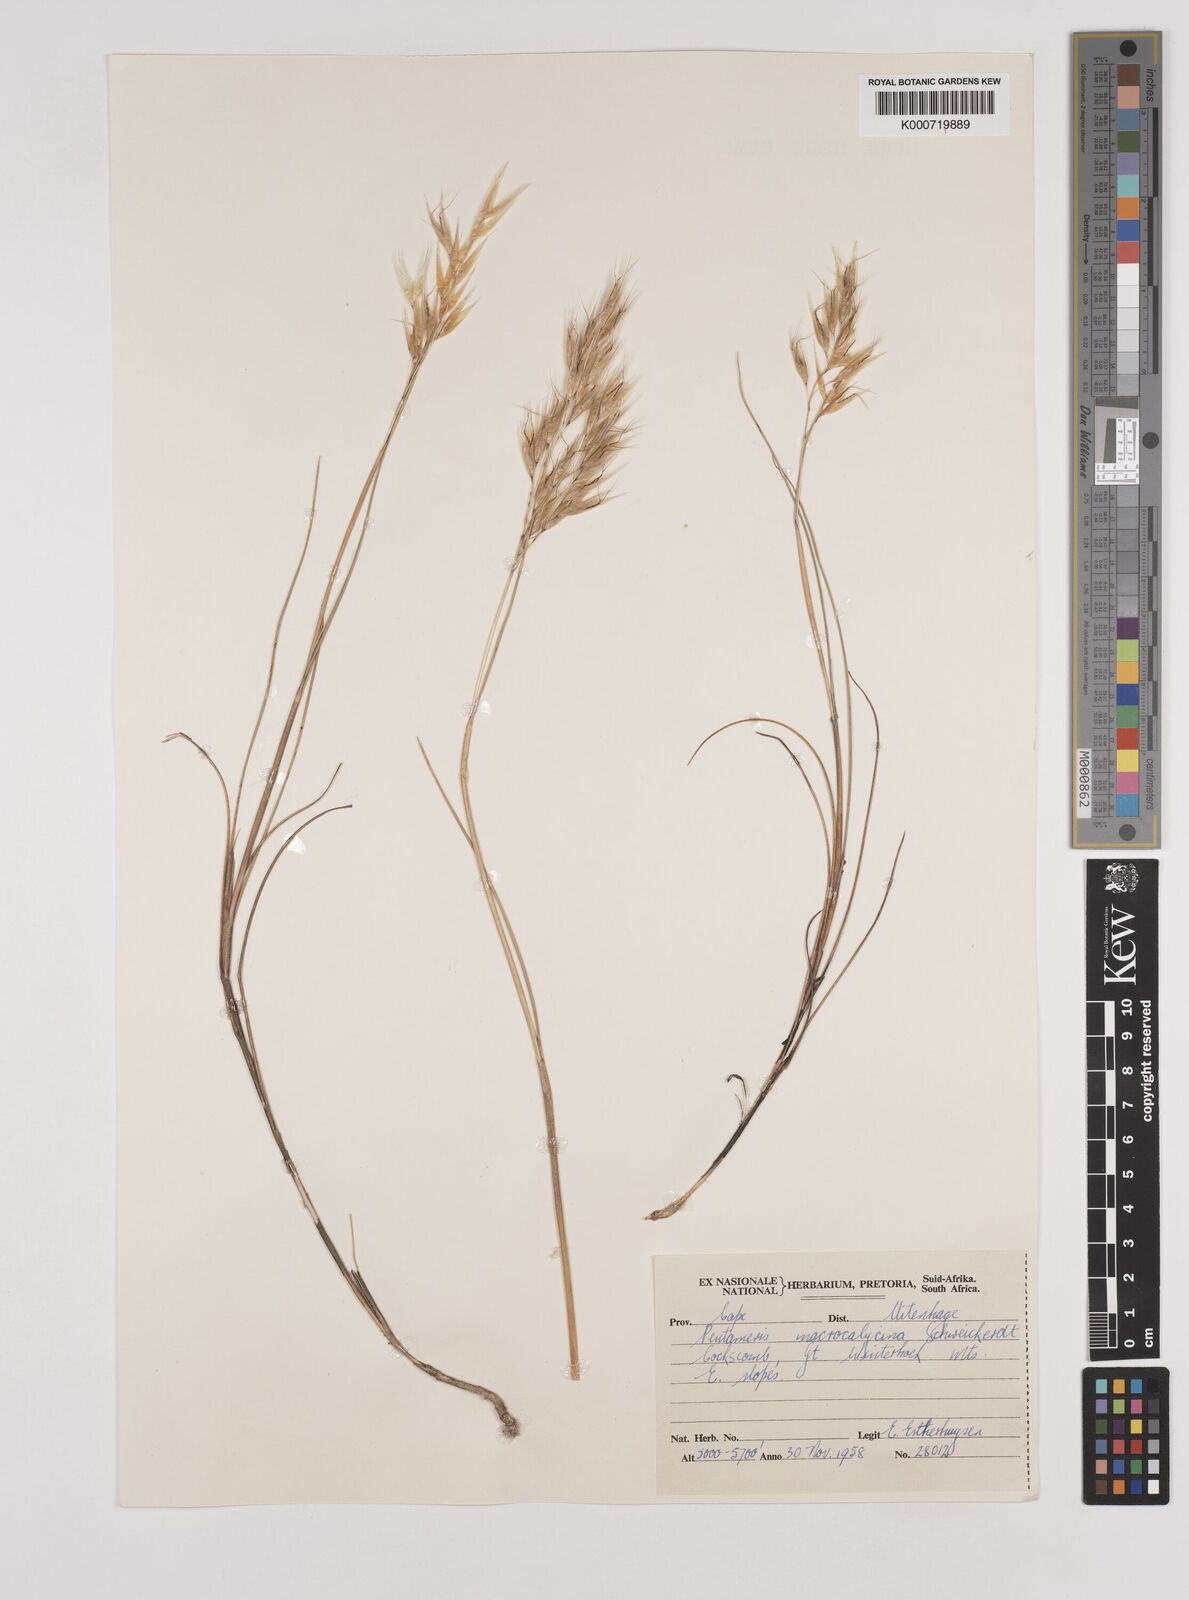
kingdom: Plantae
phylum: Tracheophyta
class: Liliopsida
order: Poales
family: Poaceae
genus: Pentameris
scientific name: Pentameris macrocalycina
